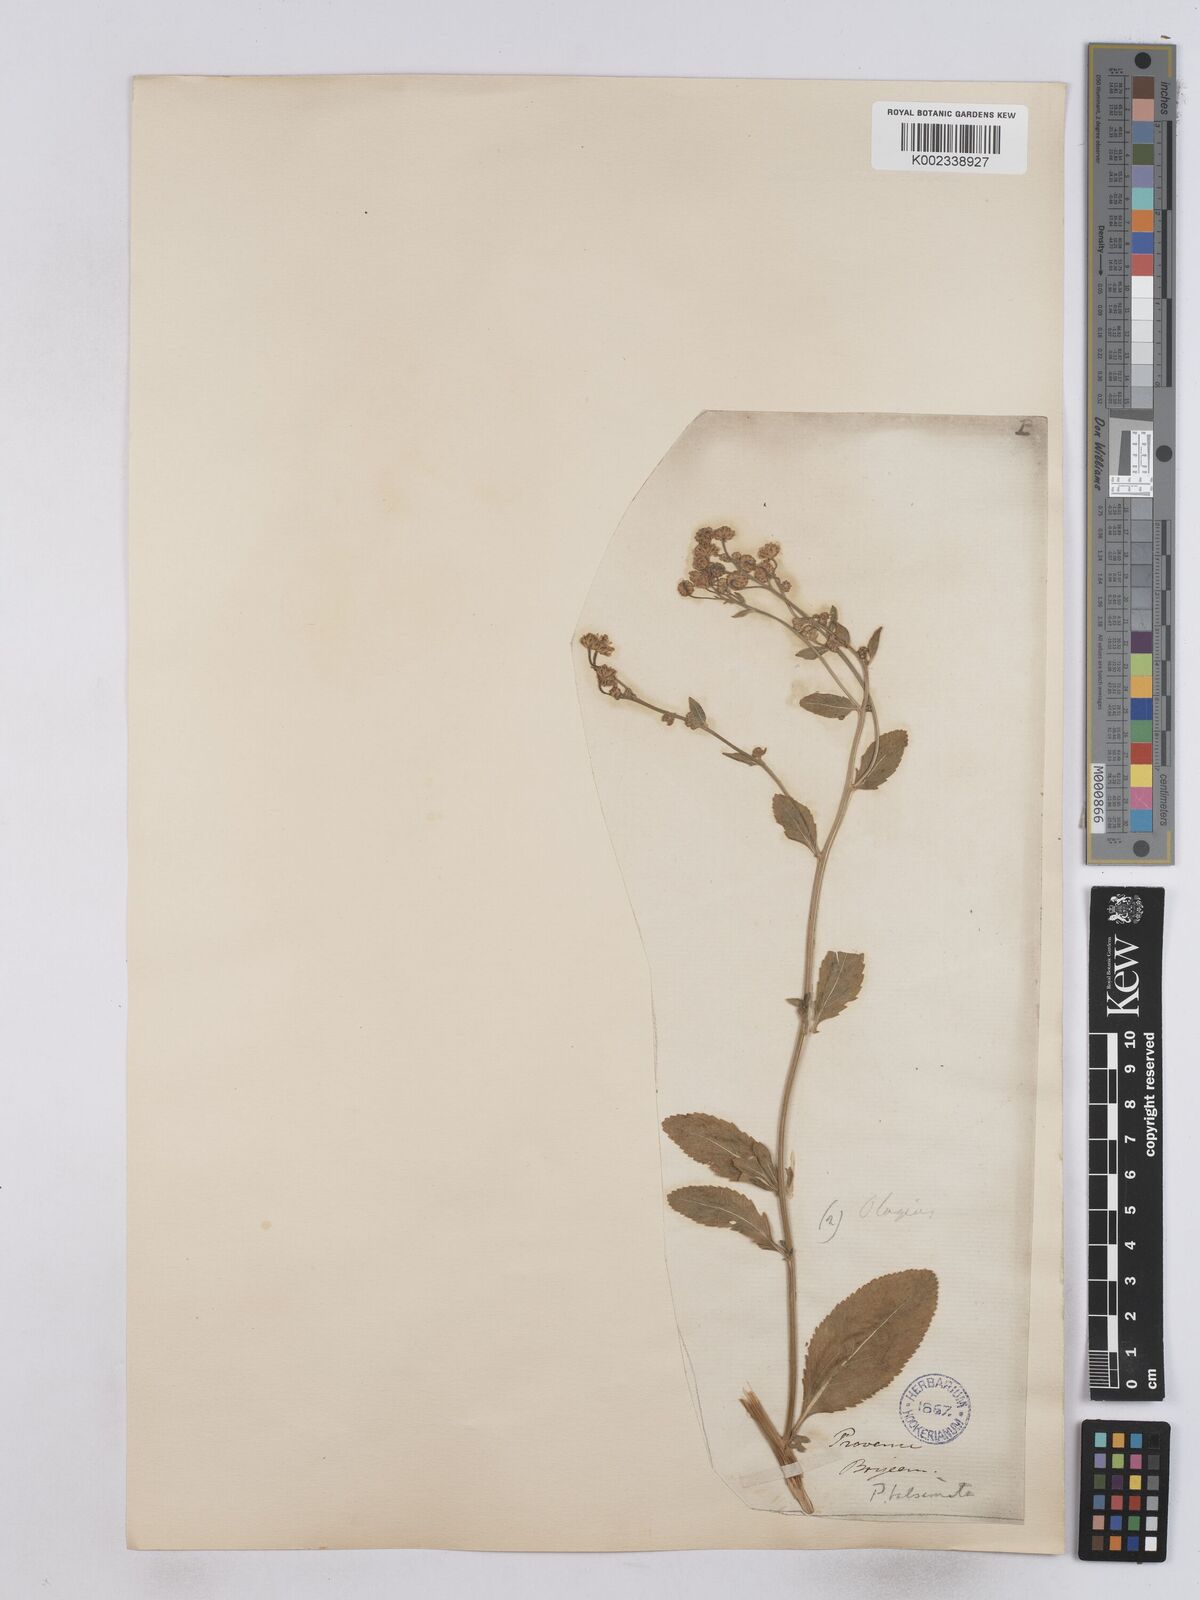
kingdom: Plantae
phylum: Tracheophyta
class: Magnoliopsida
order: Asterales
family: Asteraceae
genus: Tanacetum
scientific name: Tanacetum balsamita
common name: Costmary
